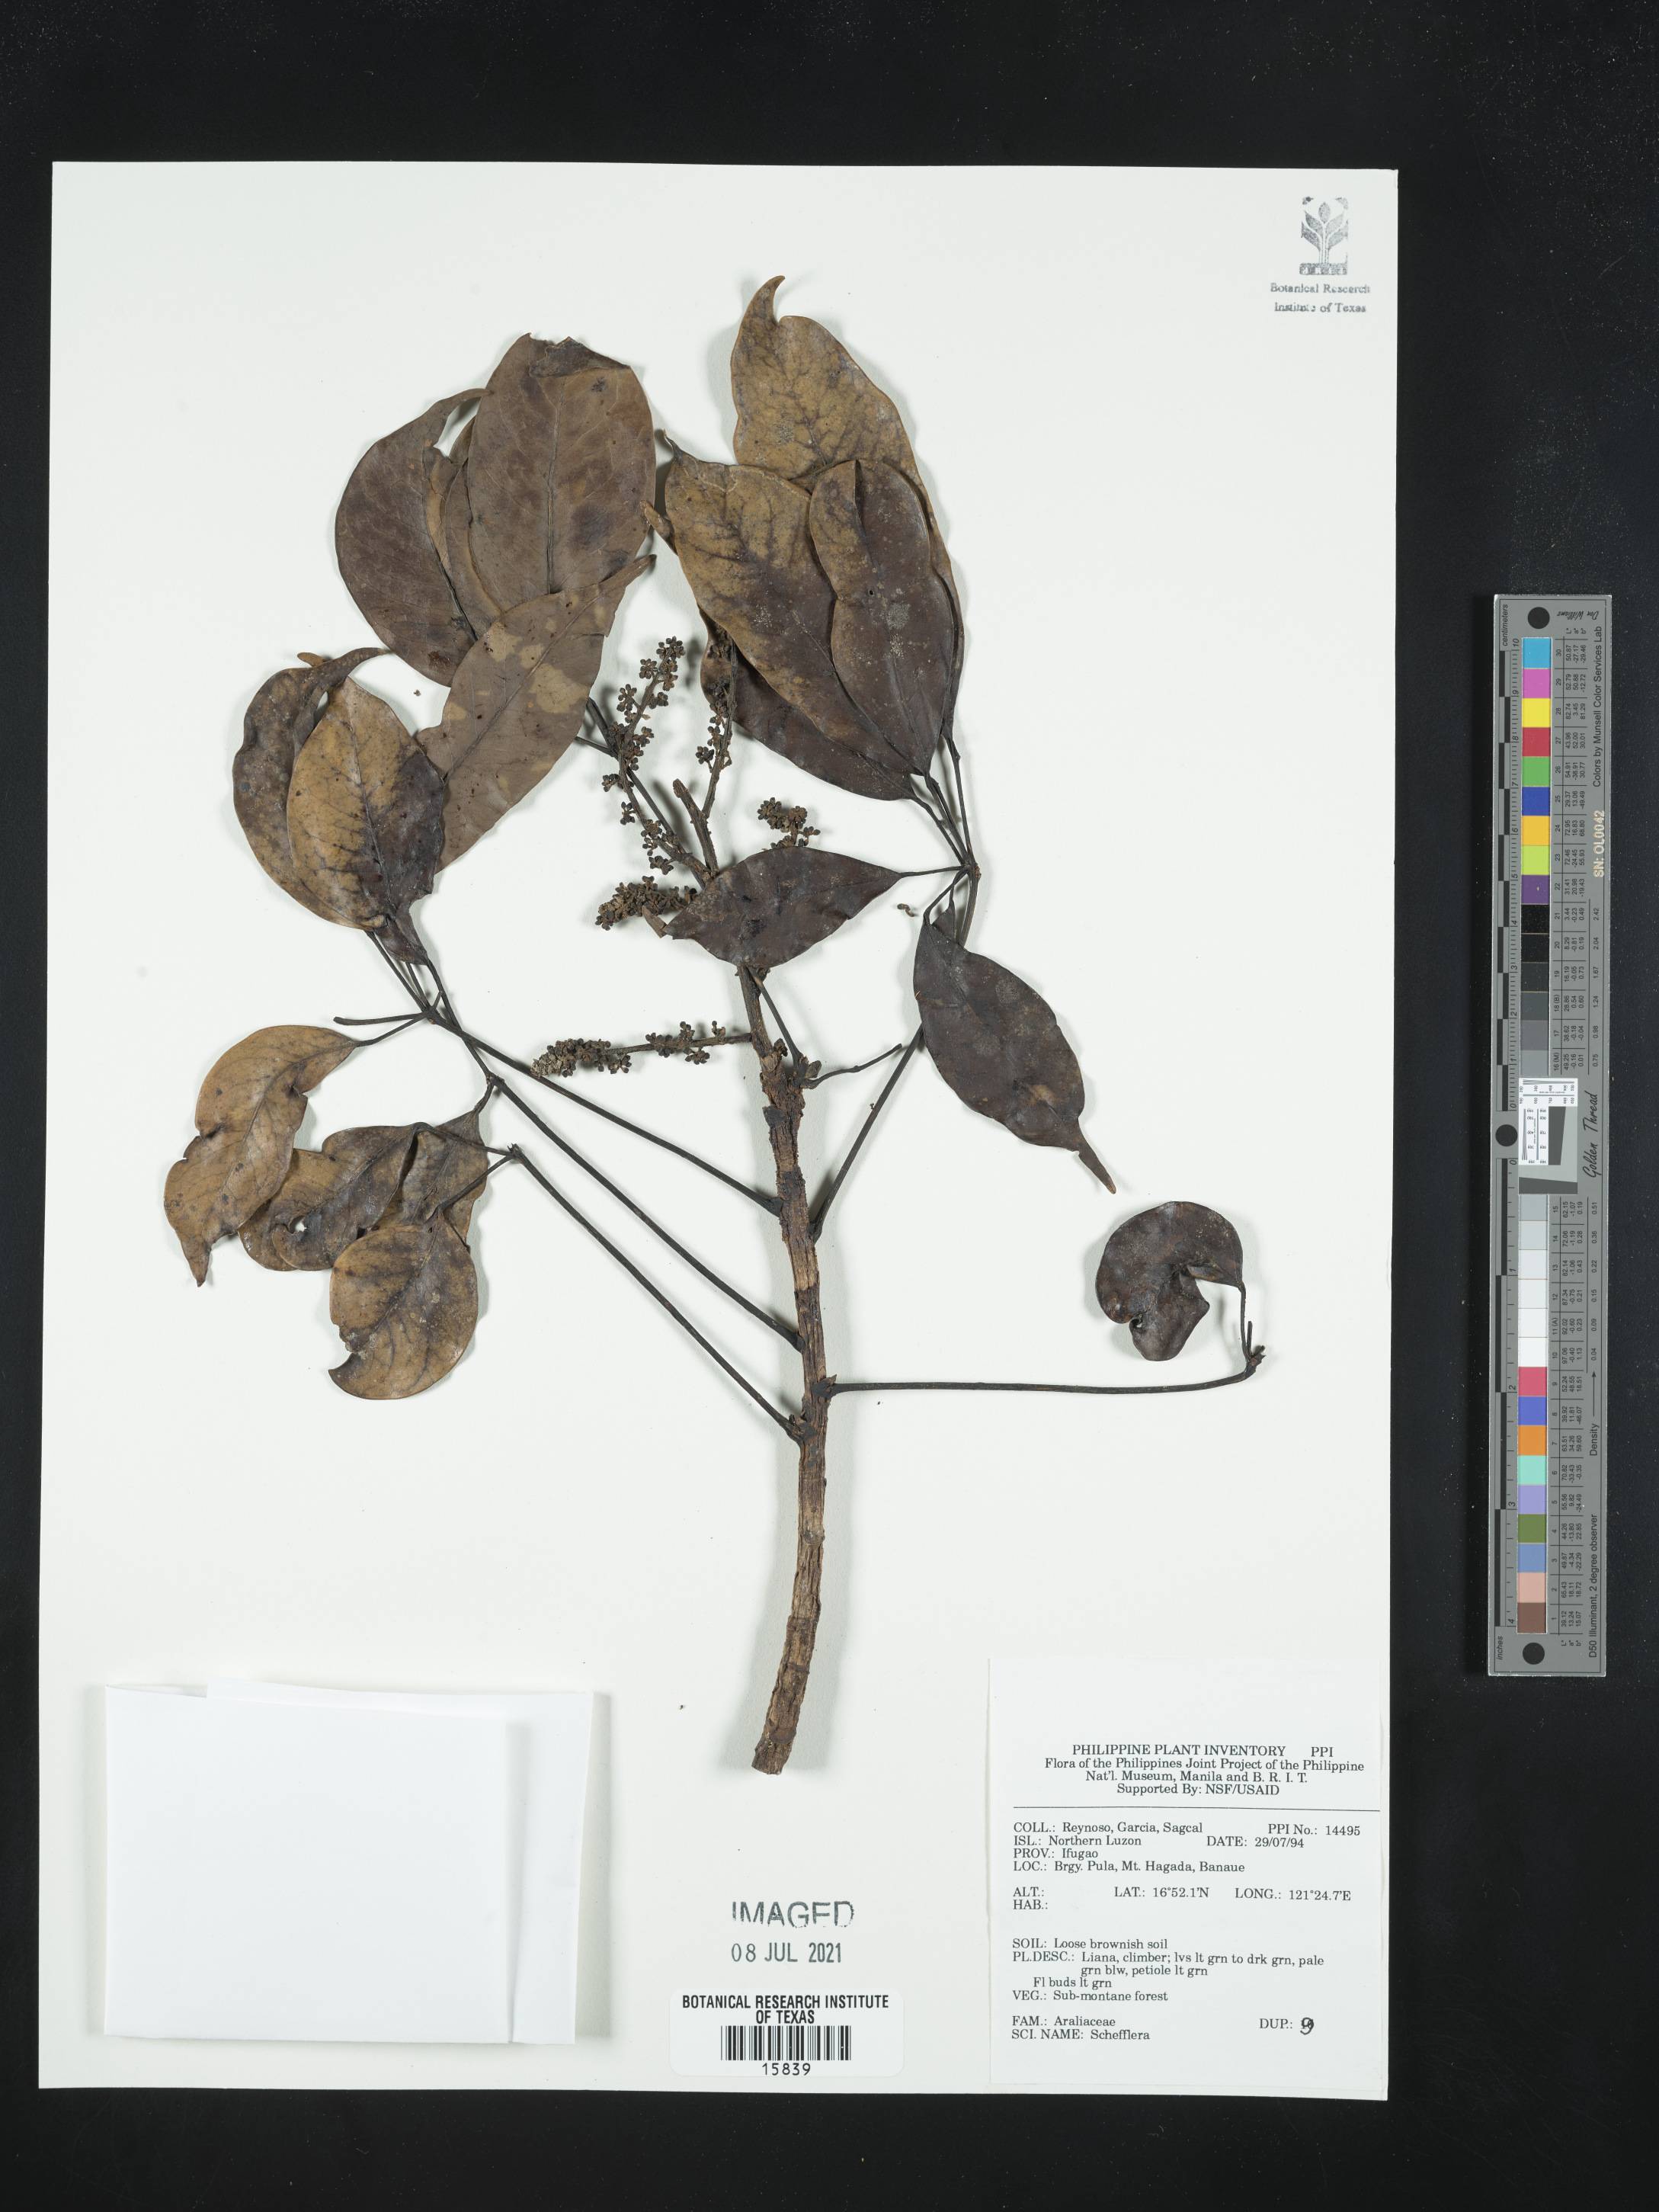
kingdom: Plantae
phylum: Tracheophyta
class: Magnoliopsida
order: Apiales
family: Araliaceae
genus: Schefflera
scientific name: Schefflera
